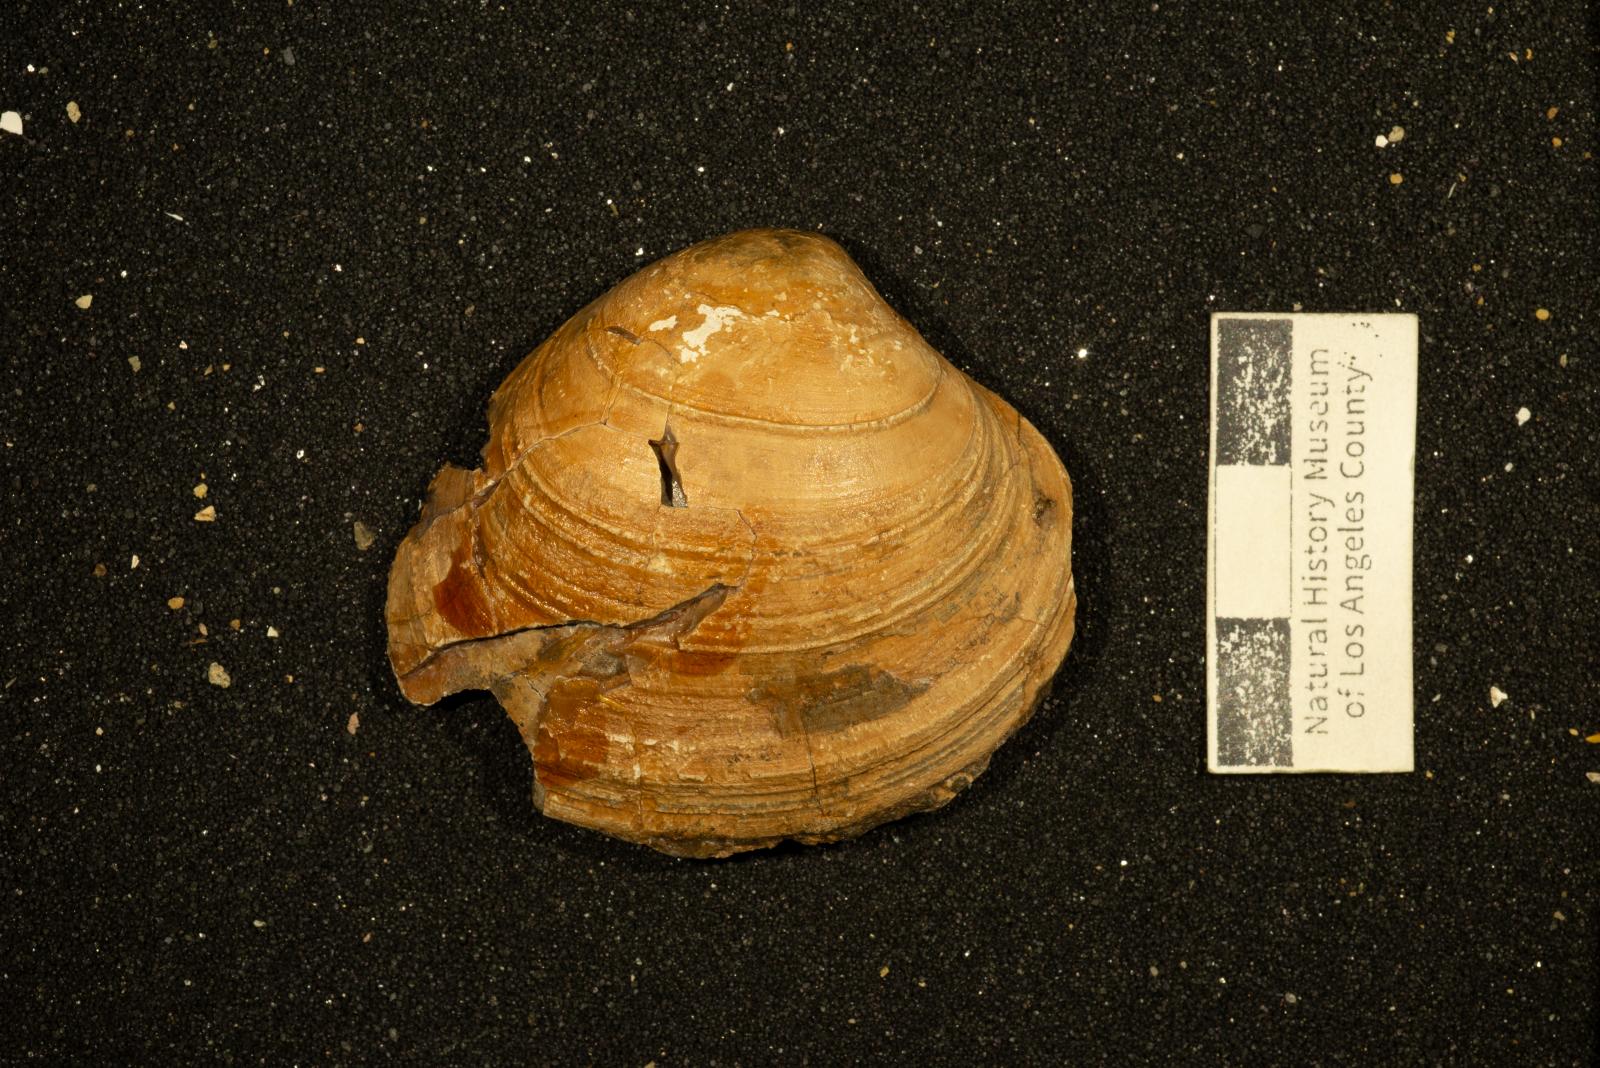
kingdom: Animalia
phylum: Mollusca
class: Bivalvia
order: Venerida
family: Veneridae
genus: Calva
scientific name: Calva Cucullaea bowersiana
